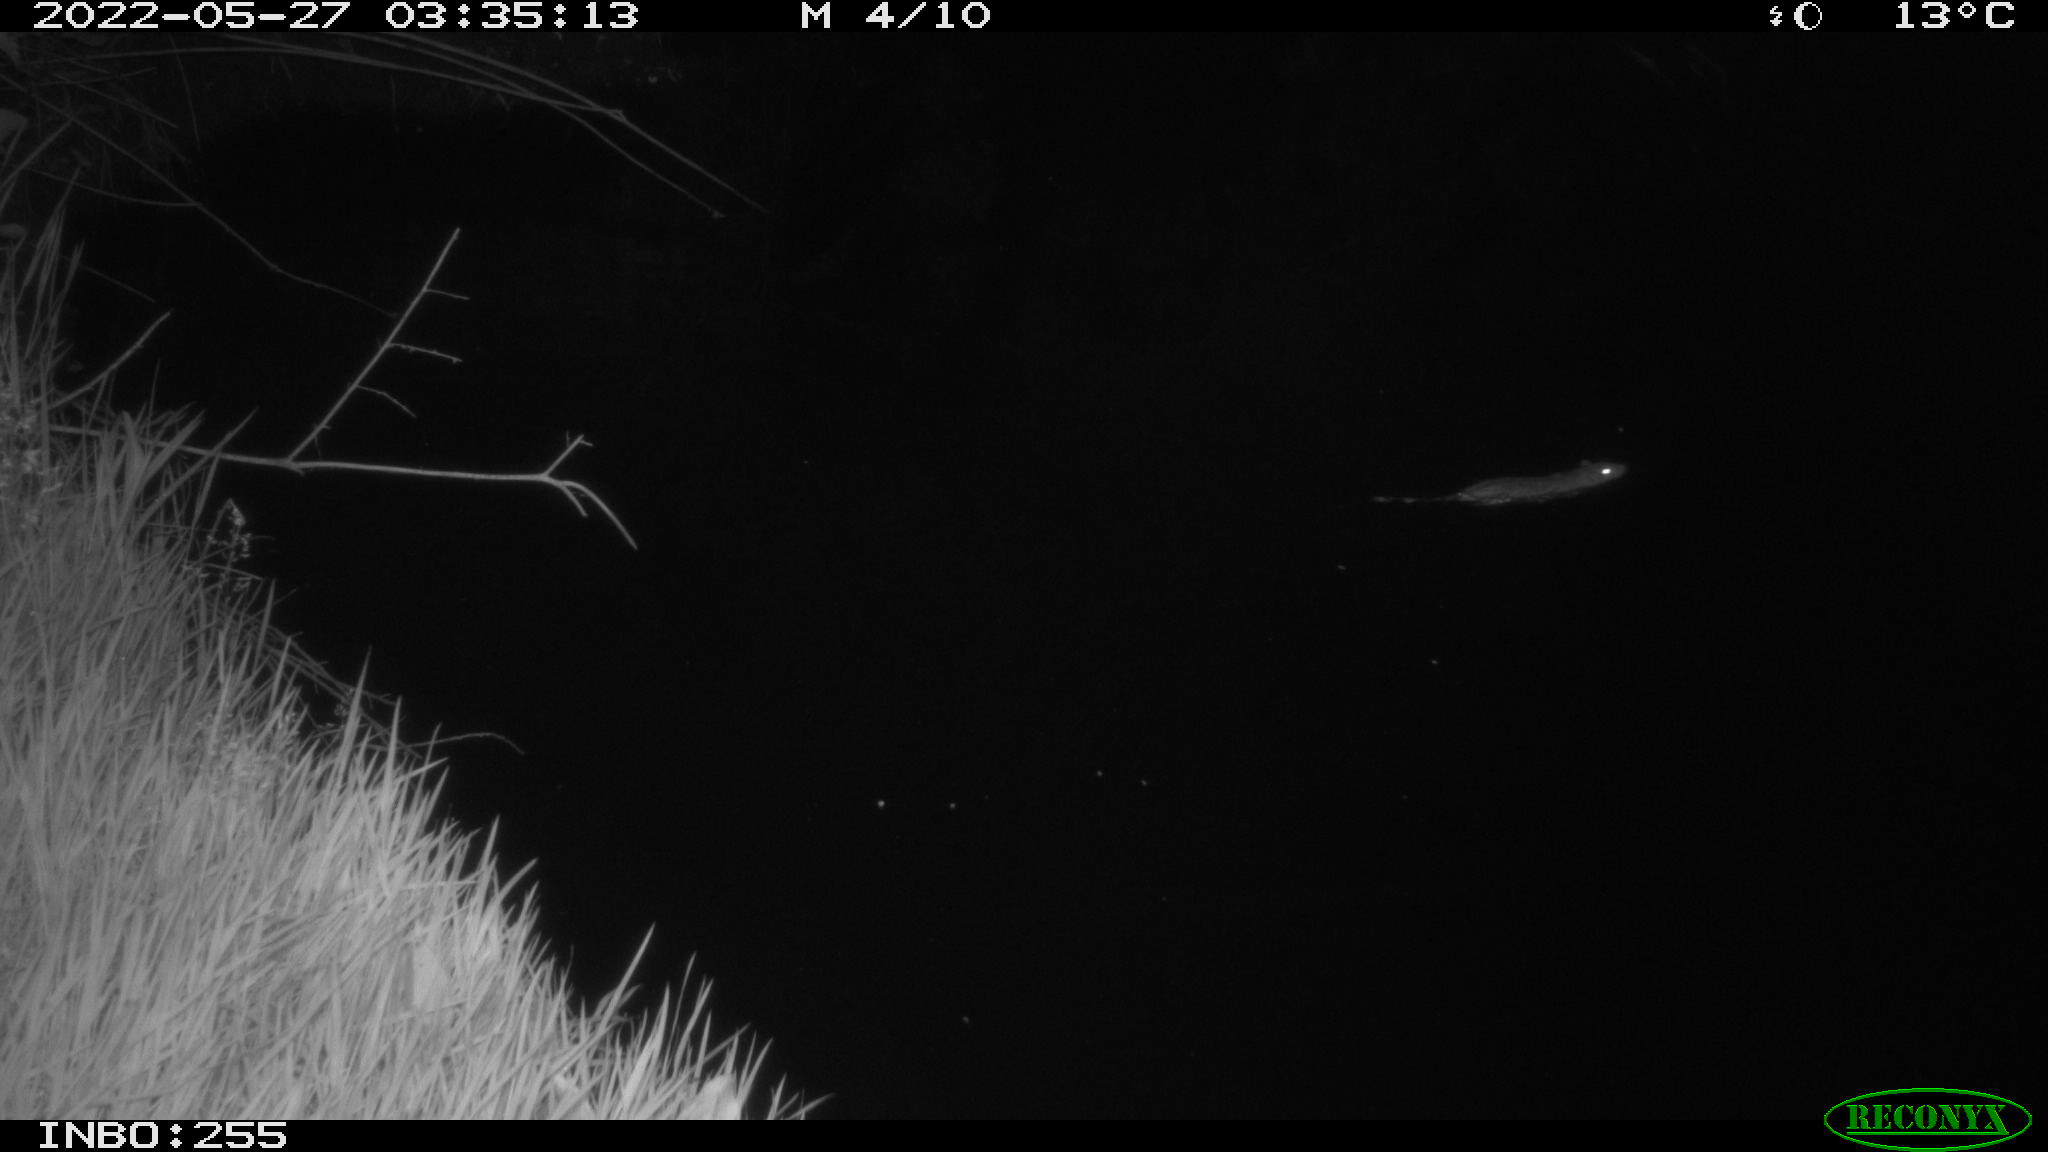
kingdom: Animalia
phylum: Chordata
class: Mammalia
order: Rodentia
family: Muridae
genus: Rattus
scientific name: Rattus norvegicus
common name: Brown rat
